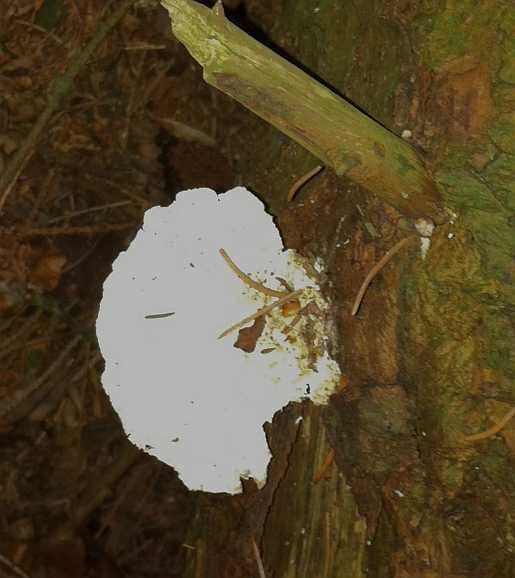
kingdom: Fungi
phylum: Basidiomycota
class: Agaricomycetes
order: Polyporales
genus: Calcipostia
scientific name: Calcipostia guttulata
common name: dråbe-kødporesvamp
